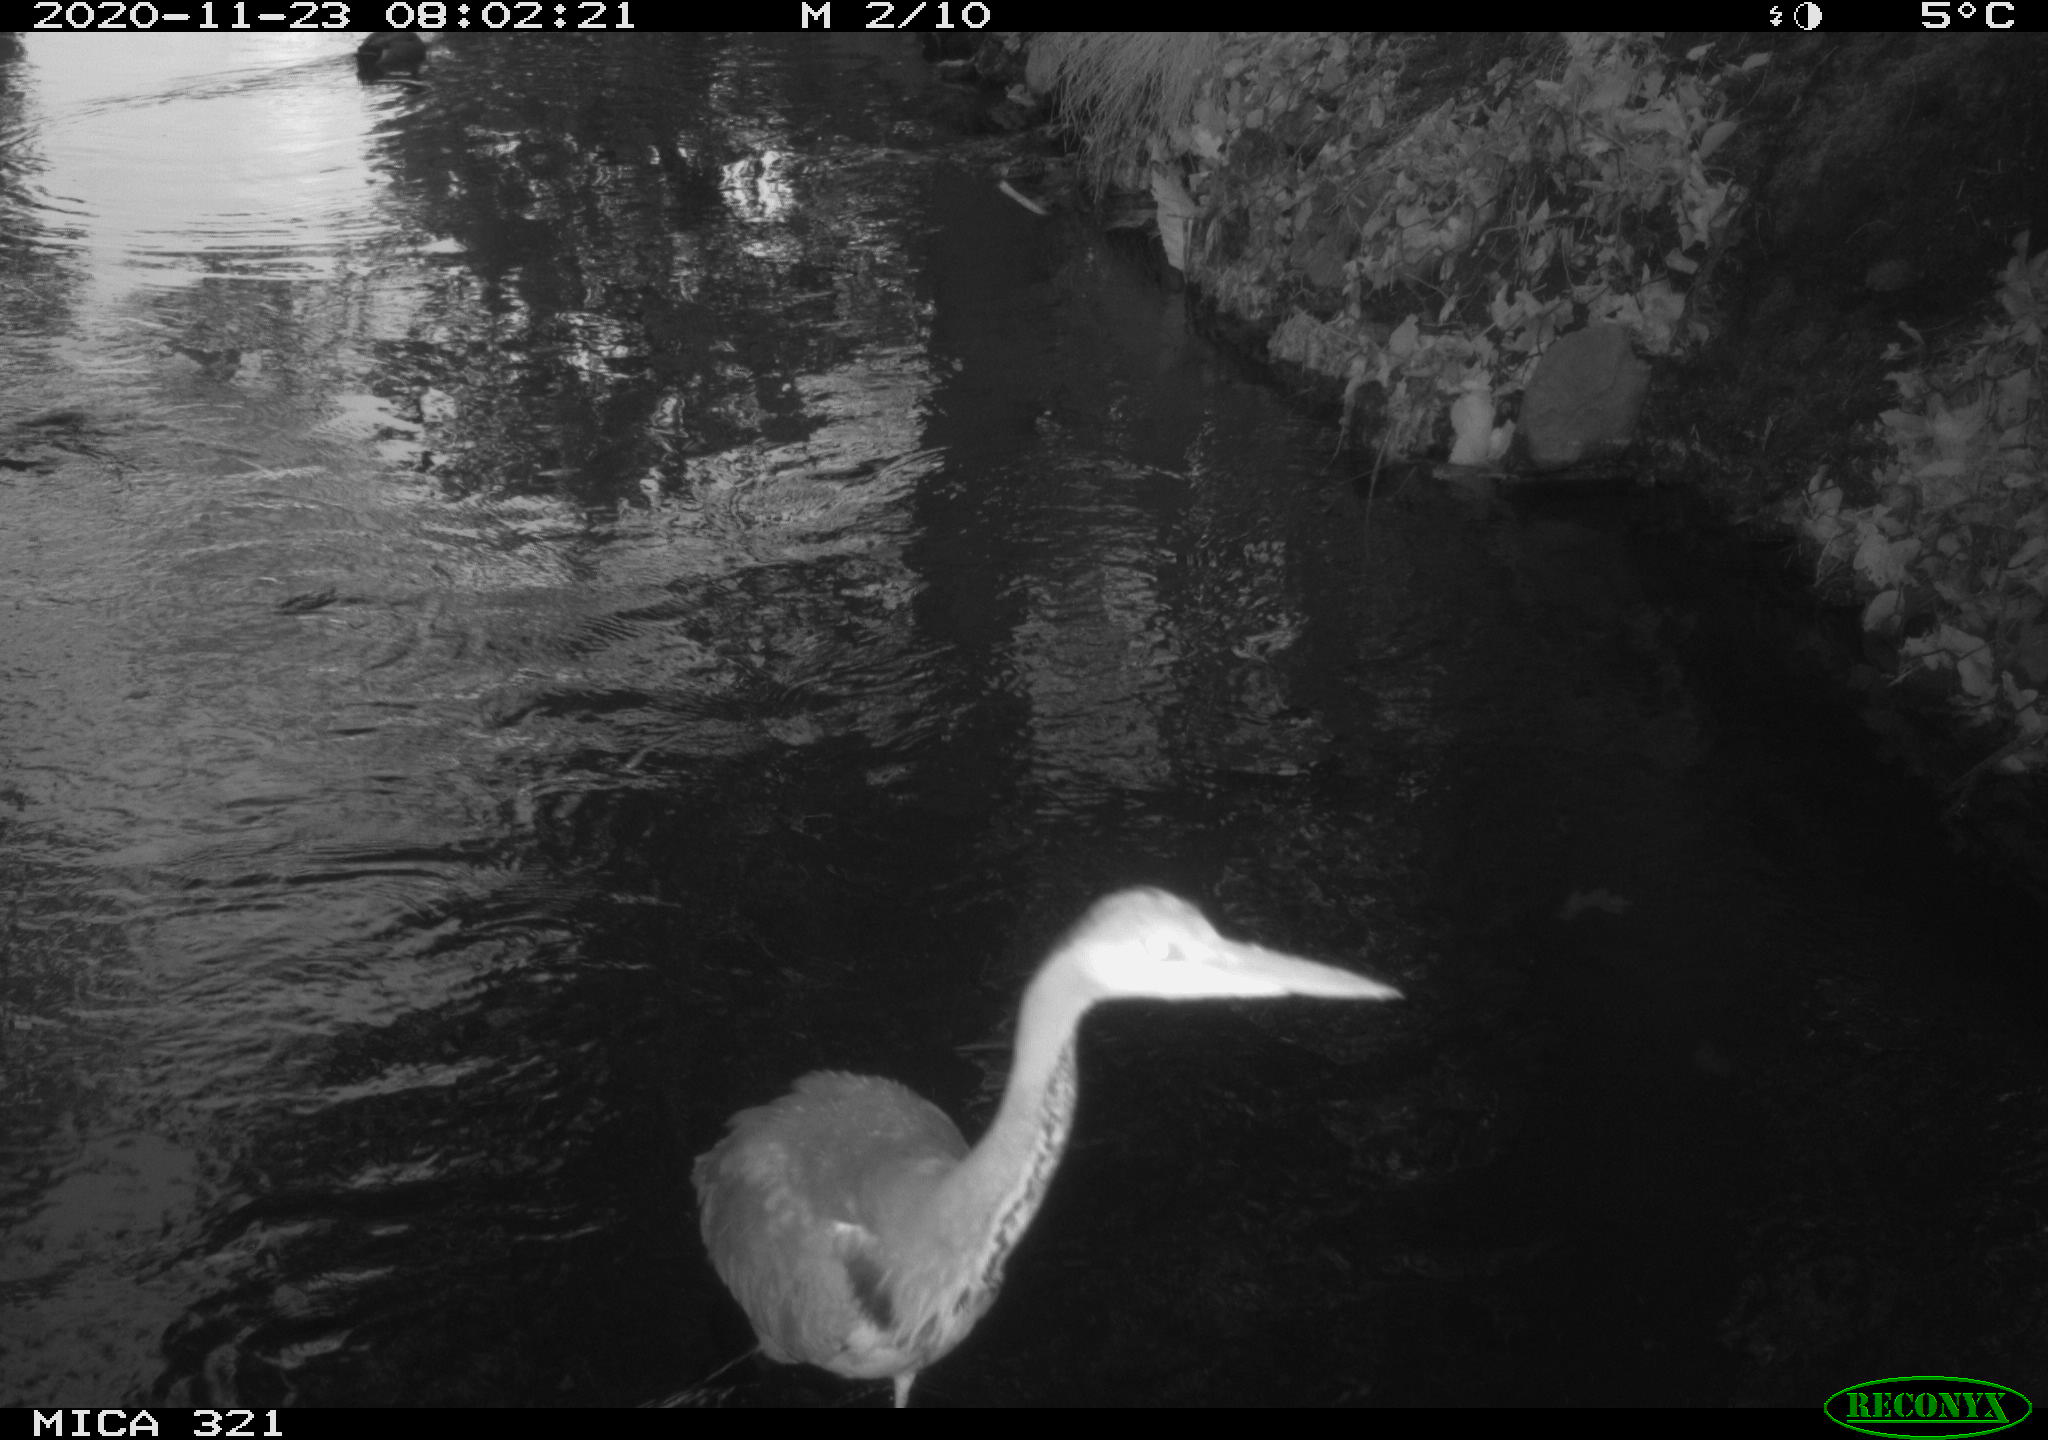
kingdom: Animalia
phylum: Chordata
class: Aves
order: Pelecaniformes
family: Ardeidae
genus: Ardea
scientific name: Ardea cinerea
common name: Grey heron
